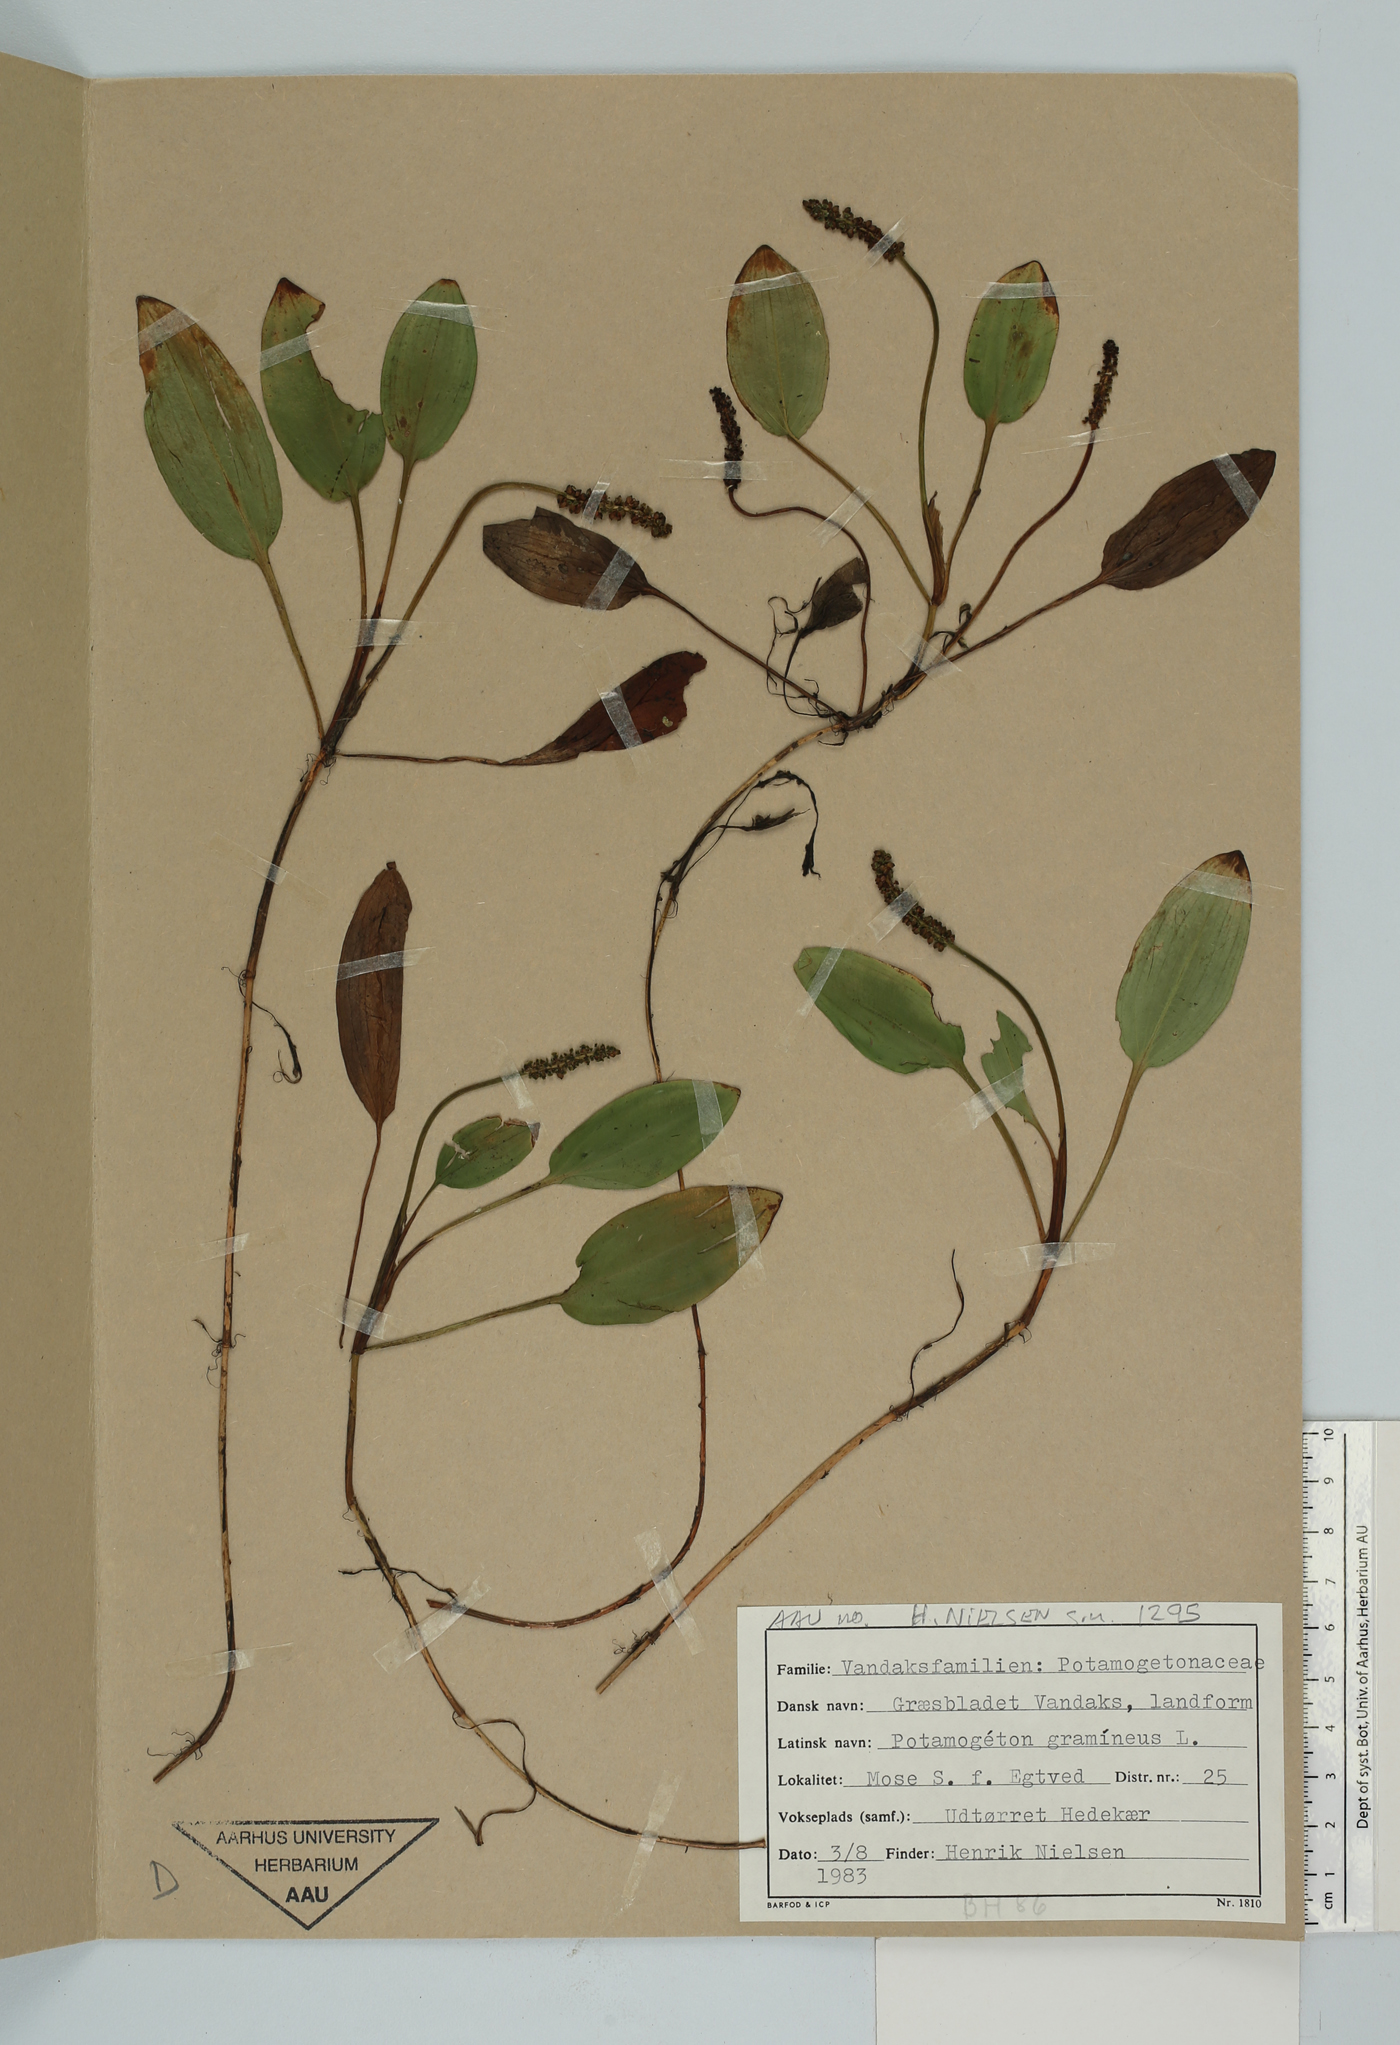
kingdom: Plantae
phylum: Tracheophyta
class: Liliopsida
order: Alismatales
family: Potamogetonaceae
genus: Potamogeton
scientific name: Potamogeton gramineus
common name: Various-leaved pondweed
